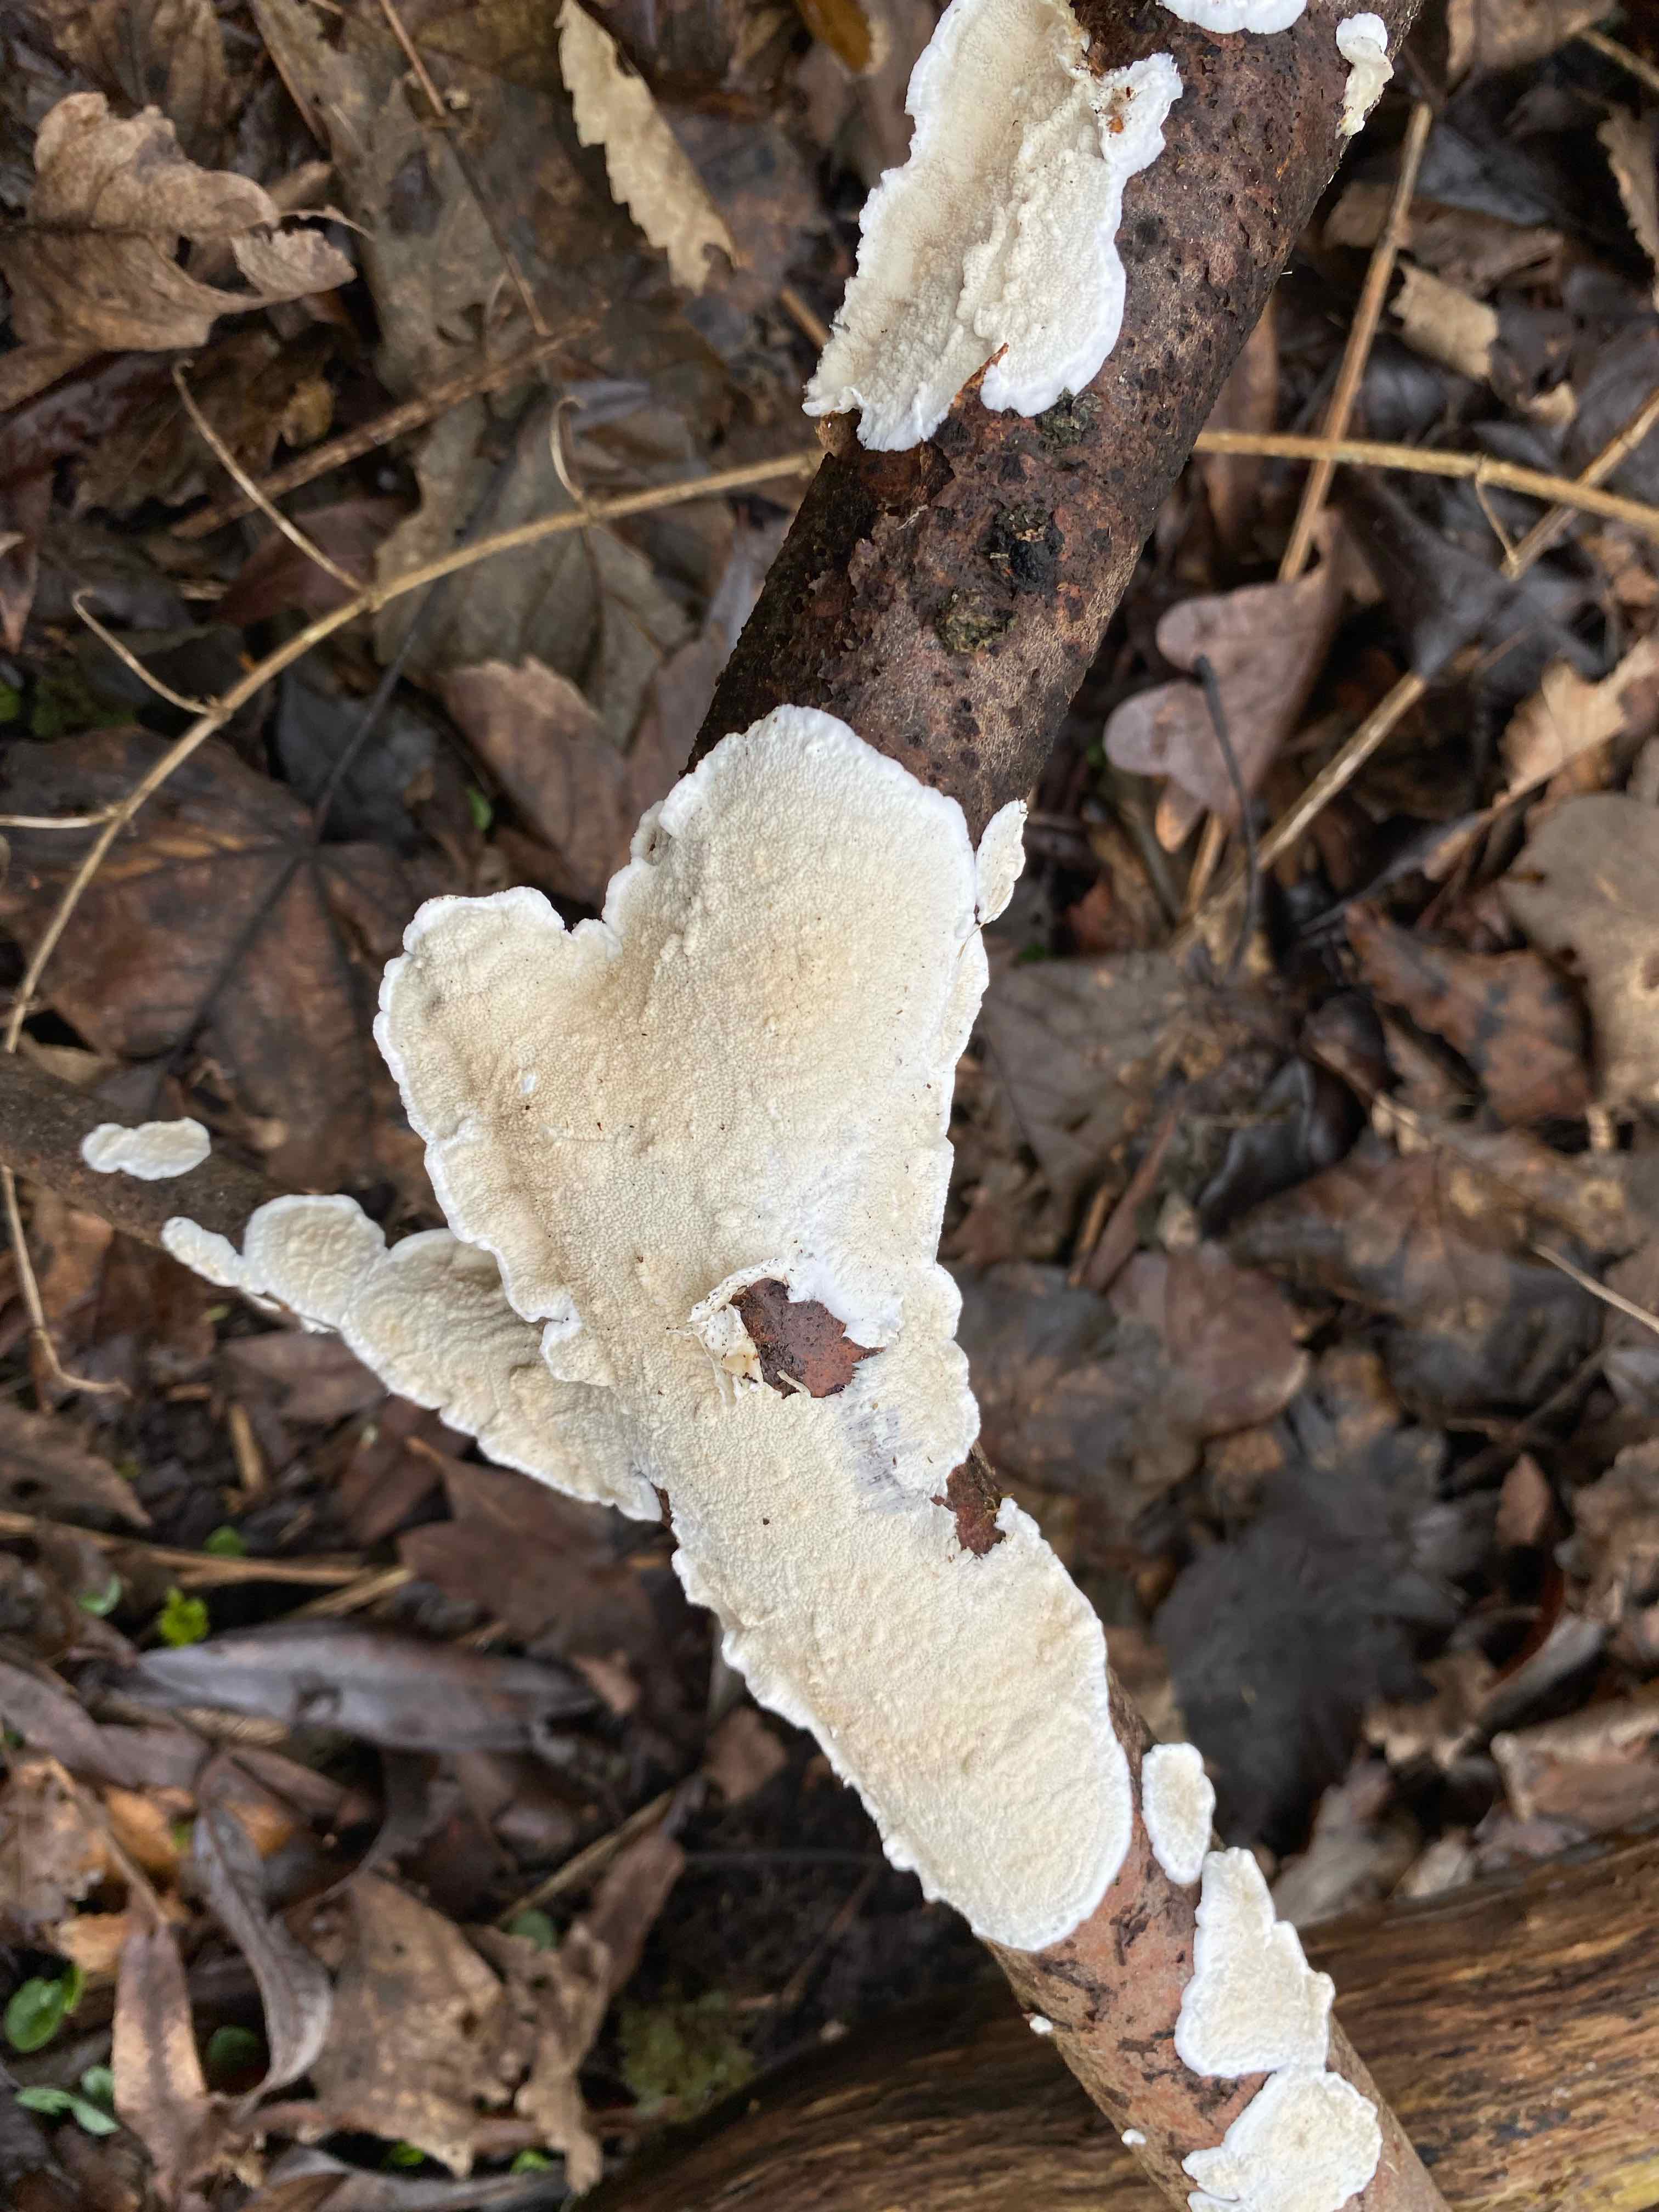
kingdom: Fungi
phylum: Basidiomycota
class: Agaricomycetes
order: Polyporales
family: Irpicaceae
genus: Byssomerulius
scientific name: Byssomerulius corium
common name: læder-åresvamp
